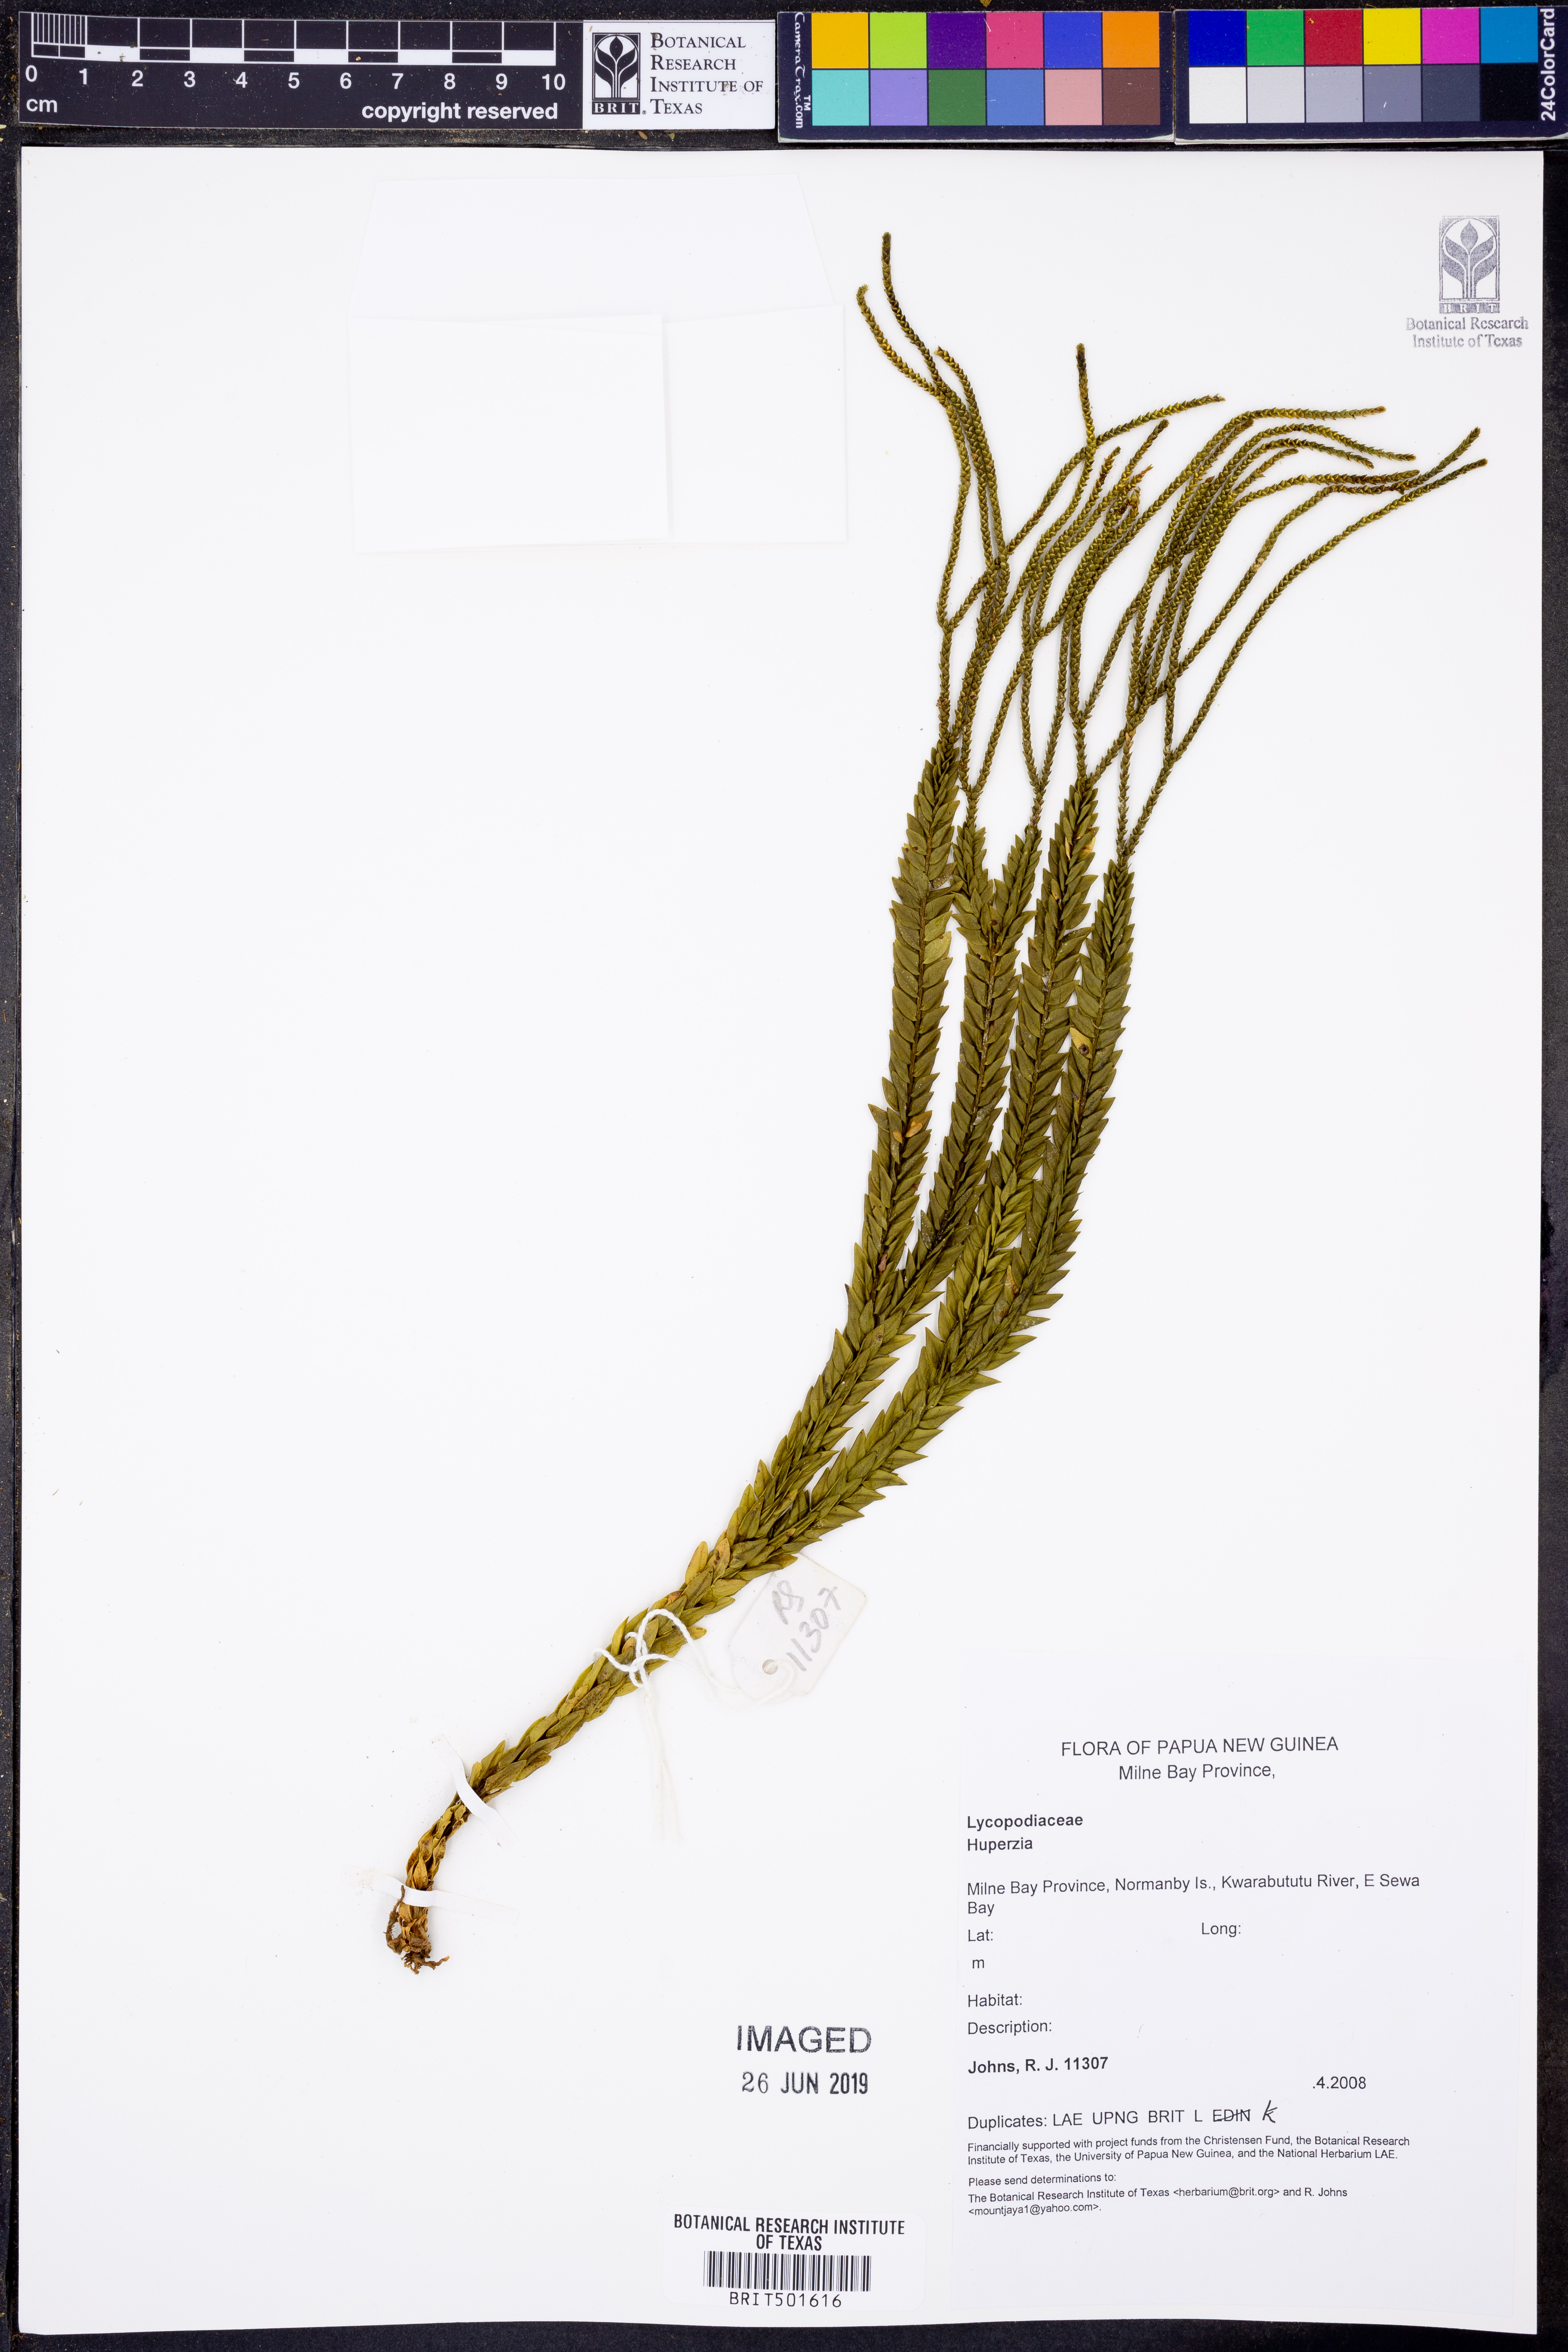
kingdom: Plantae
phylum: Tracheophyta
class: Lycopodiopsida
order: Lycopodiales
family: Lycopodiaceae
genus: Huperzia
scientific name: Huperzia
